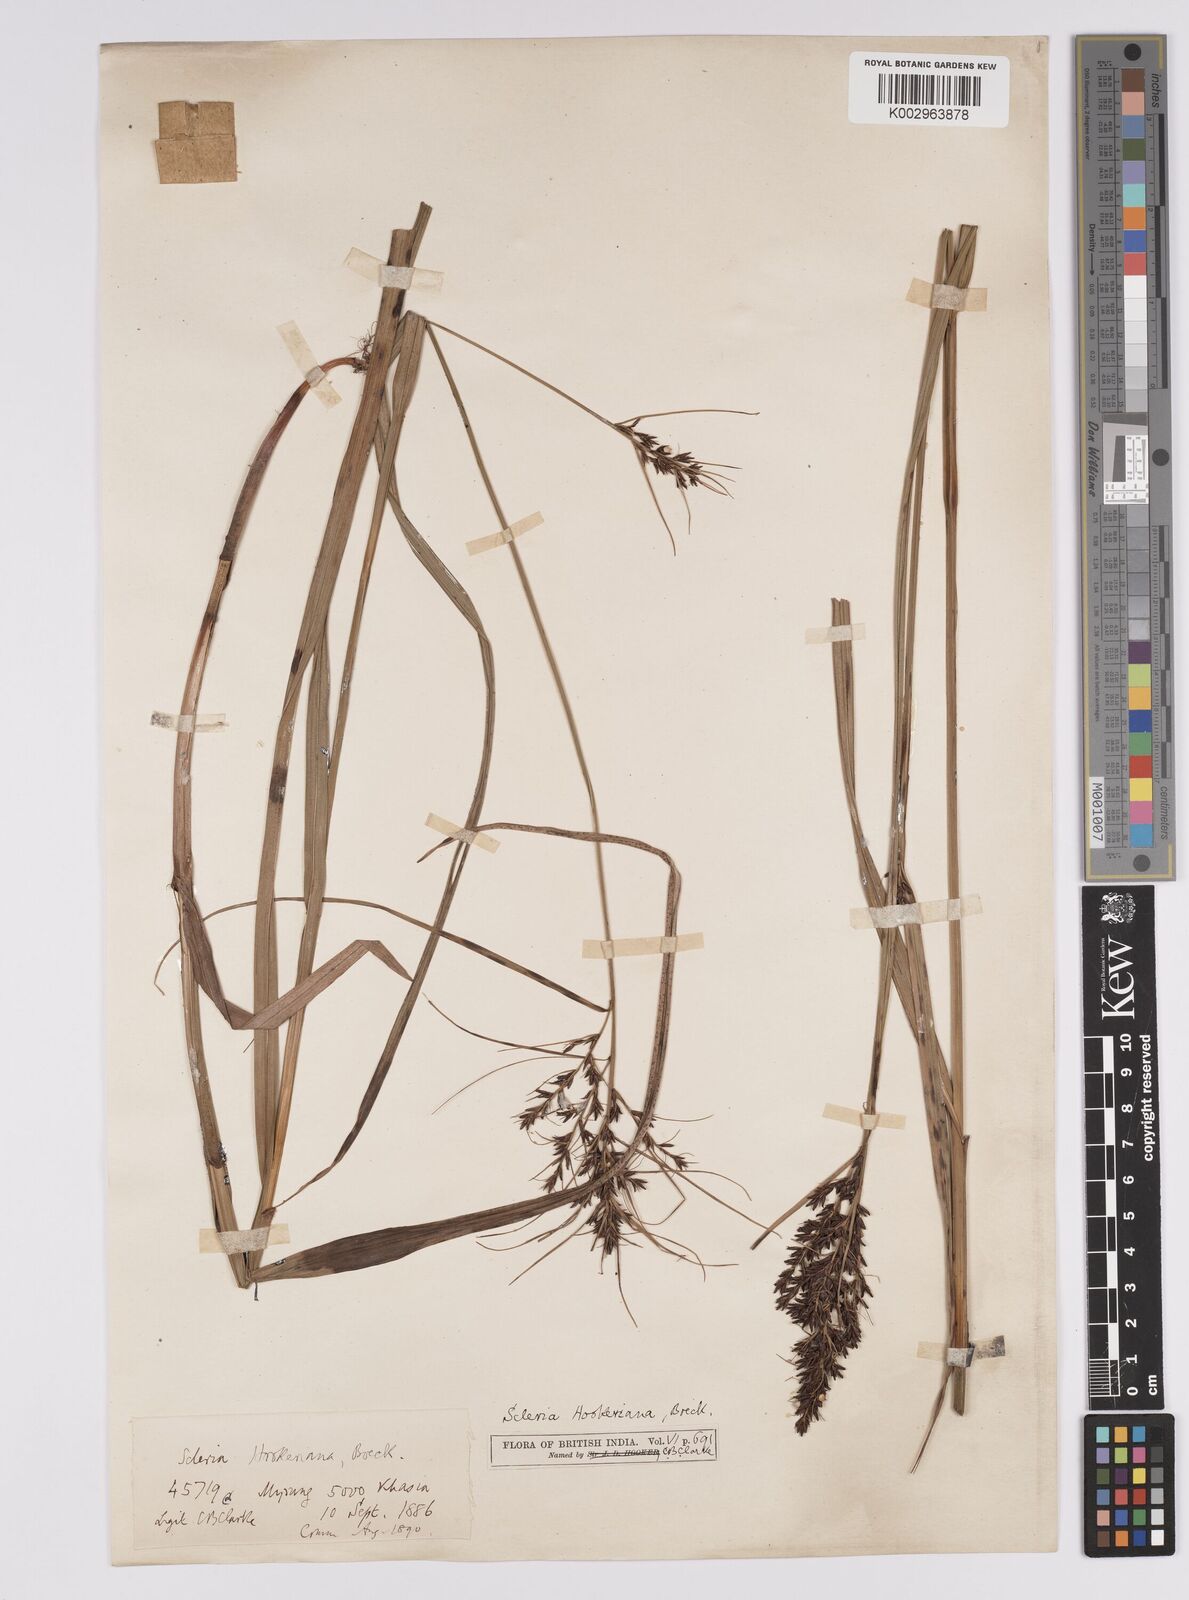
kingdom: Plantae
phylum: Tracheophyta
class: Liliopsida
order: Poales
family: Cyperaceae
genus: Scleria
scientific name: Scleria terrestris
